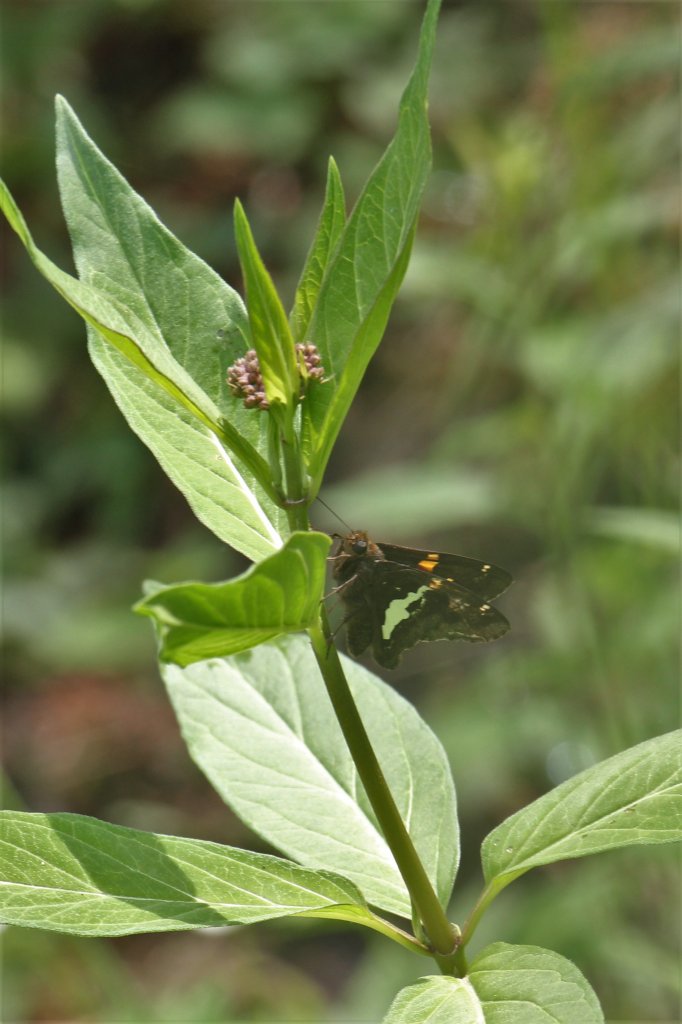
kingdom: Animalia
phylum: Arthropoda
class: Insecta
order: Lepidoptera
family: Hesperiidae
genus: Epargyreus
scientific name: Epargyreus clarus
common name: Silver-spotted Skipper
